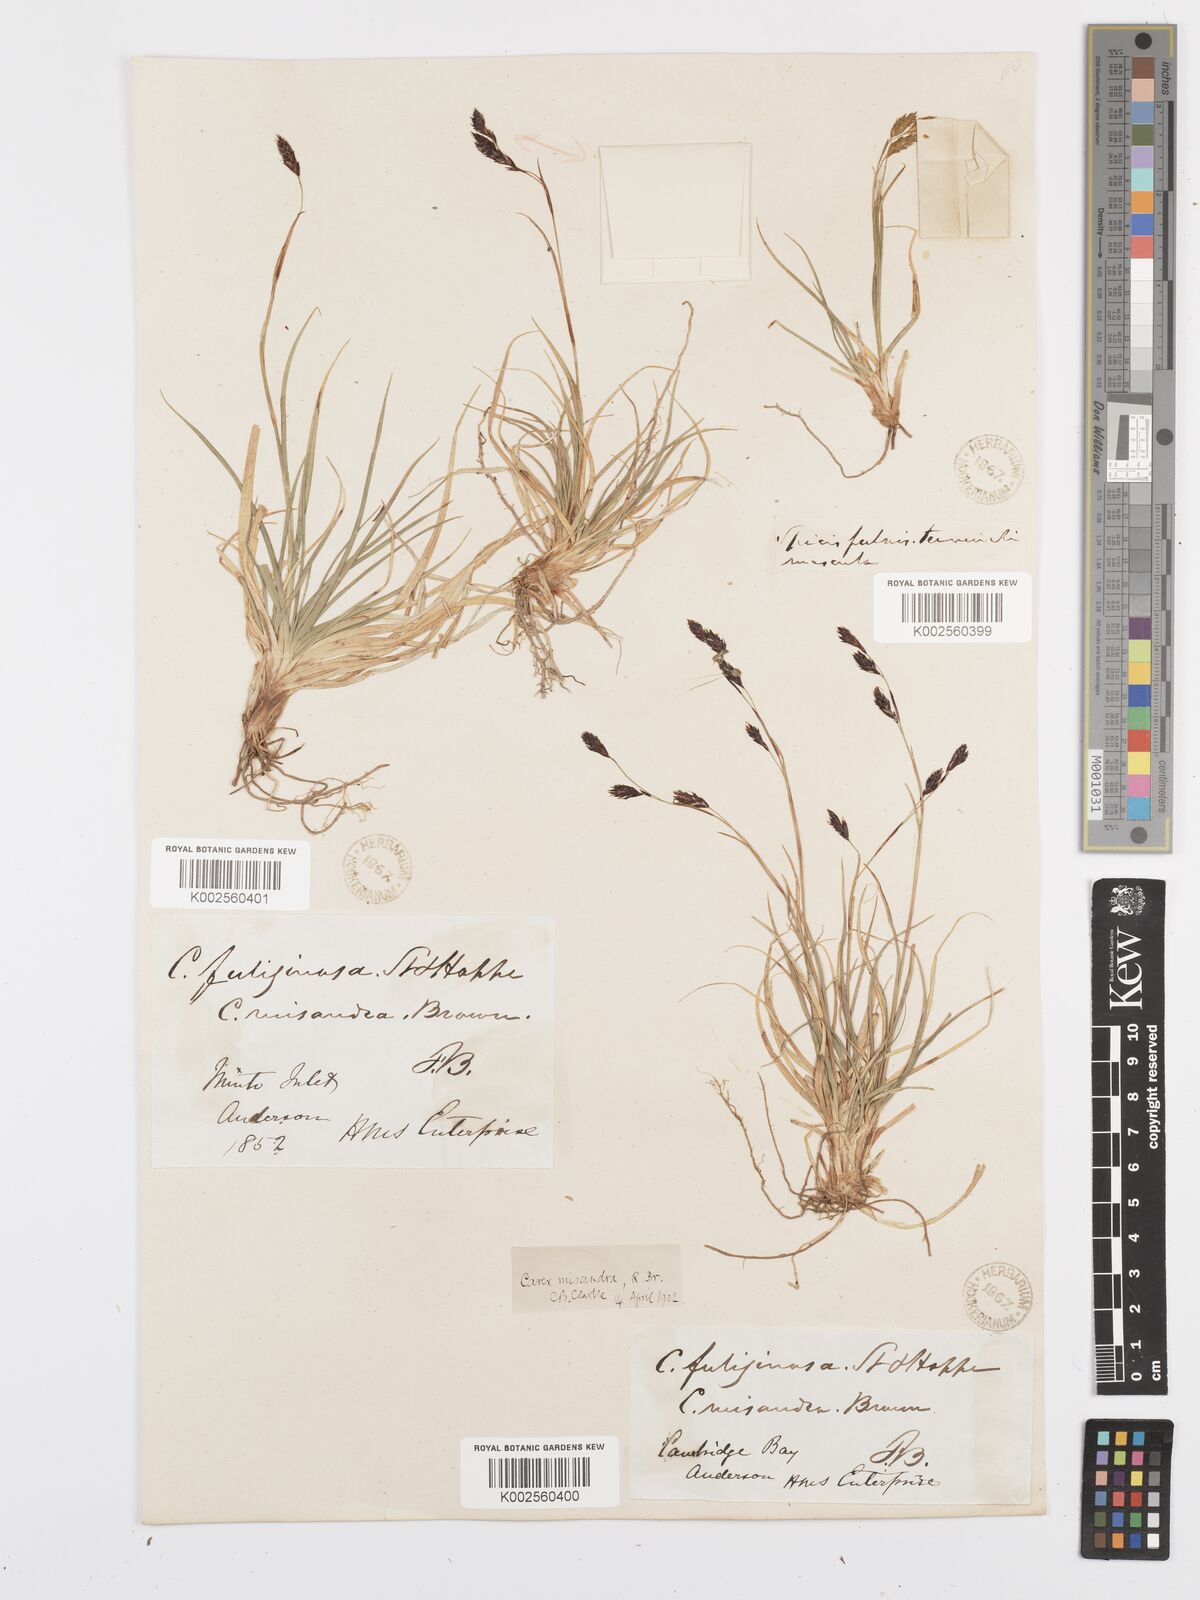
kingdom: Plantae
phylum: Tracheophyta
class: Liliopsida
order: Poales
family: Cyperaceae
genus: Carex
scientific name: Carex fuliginosa
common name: Few-flowered sedge
